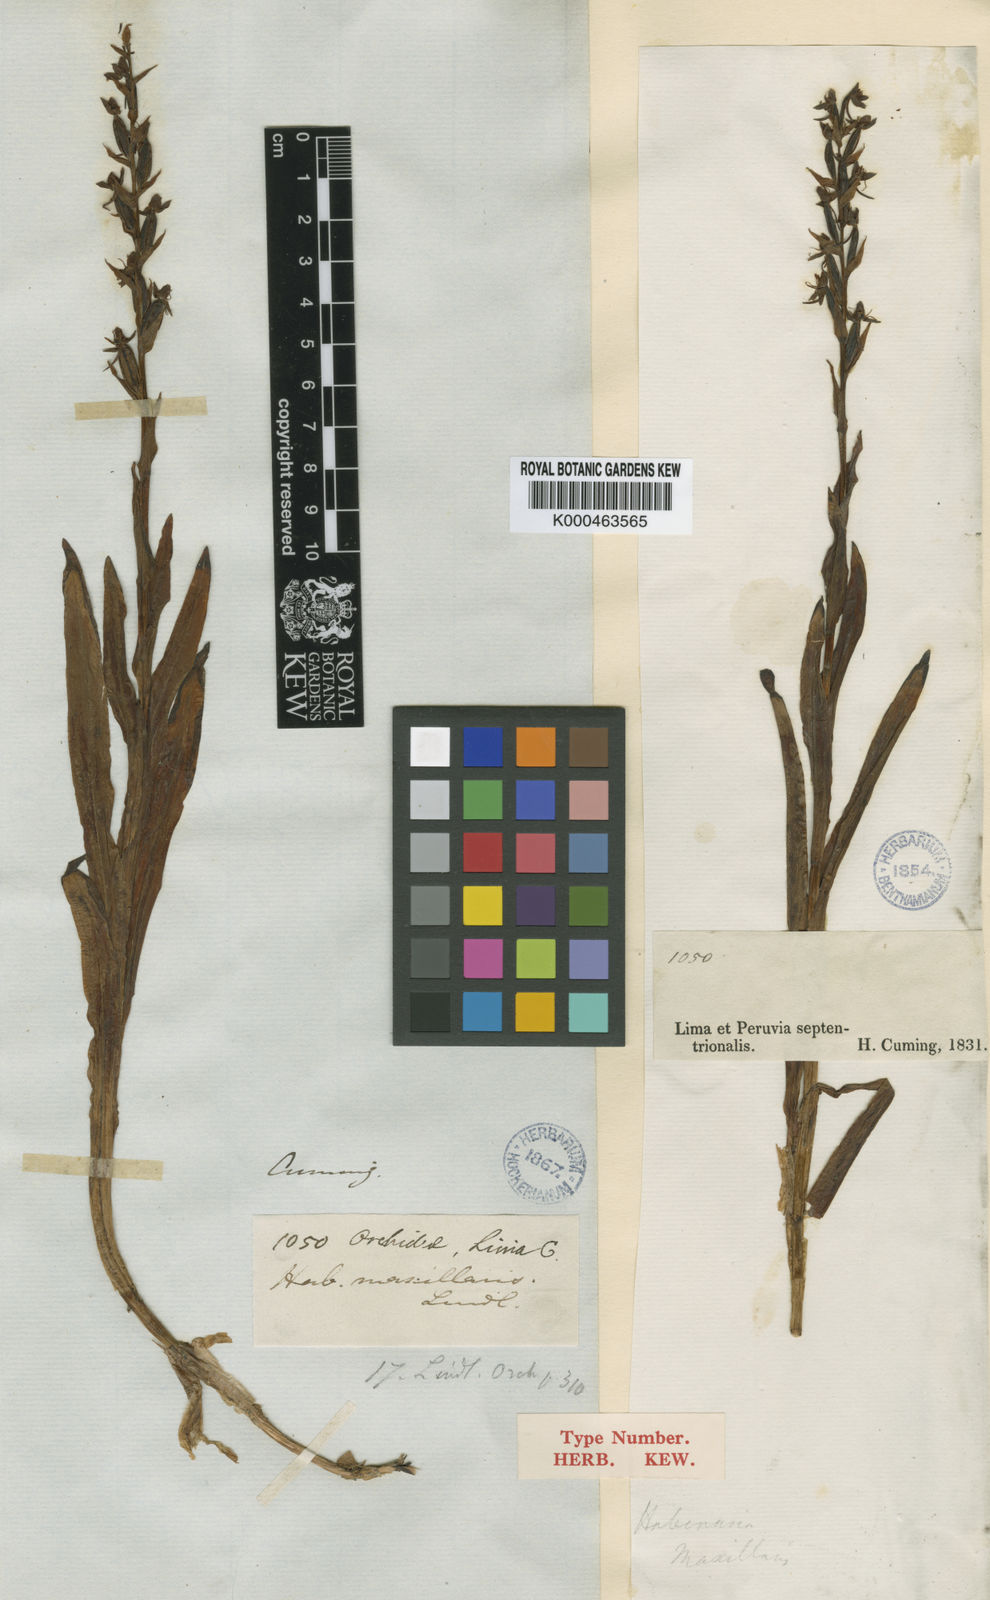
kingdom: Plantae
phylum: Tracheophyta
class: Liliopsida
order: Asparagales
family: Orchidaceae
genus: Habenaria
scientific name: Habenaria repens
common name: Water orchid
